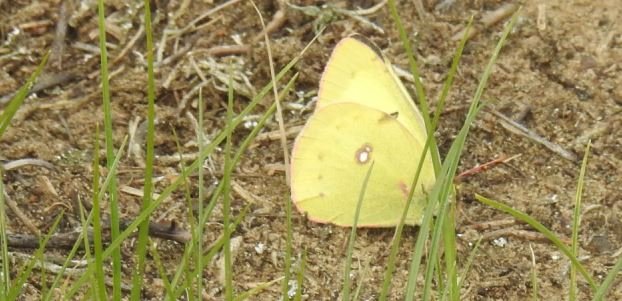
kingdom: Animalia
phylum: Arthropoda
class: Insecta
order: Lepidoptera
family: Pieridae
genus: Colias
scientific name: Colias philodice
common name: Clouded Sulphur
